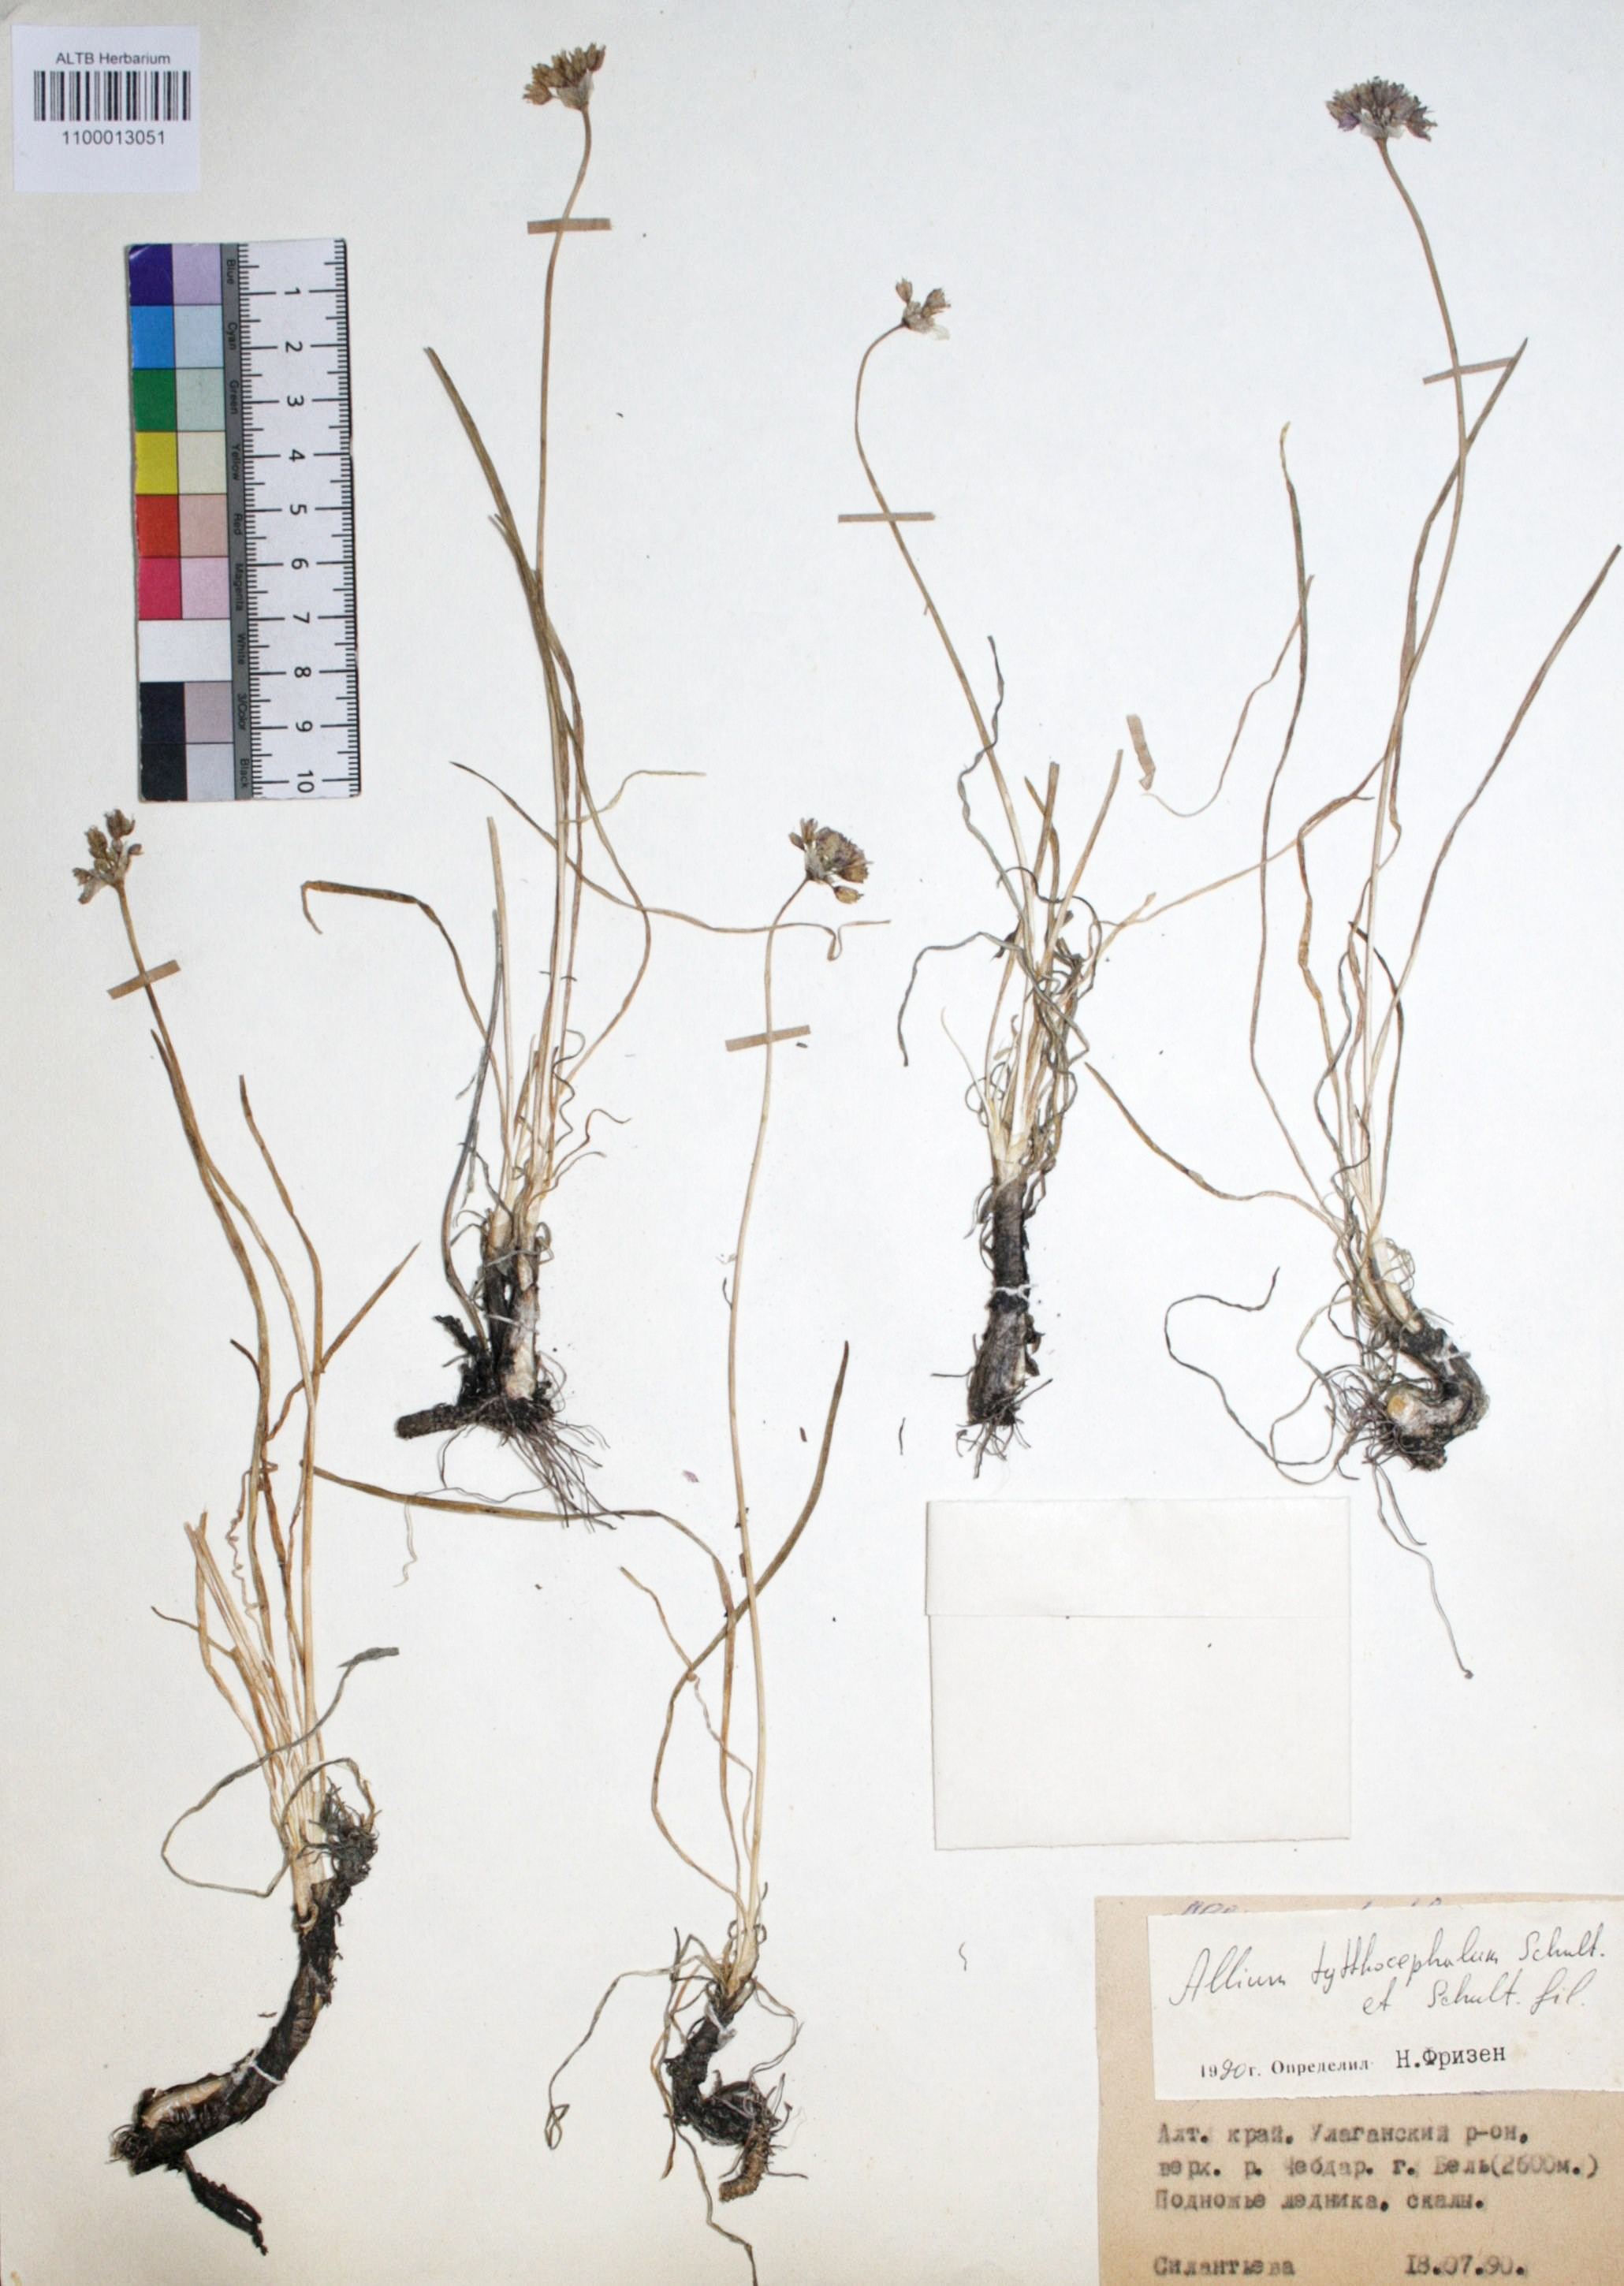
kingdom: Plantae
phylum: Tracheophyta
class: Liliopsida
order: Asparagales
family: Amaryllidaceae
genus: Allium
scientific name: Allium tytthocephalum
